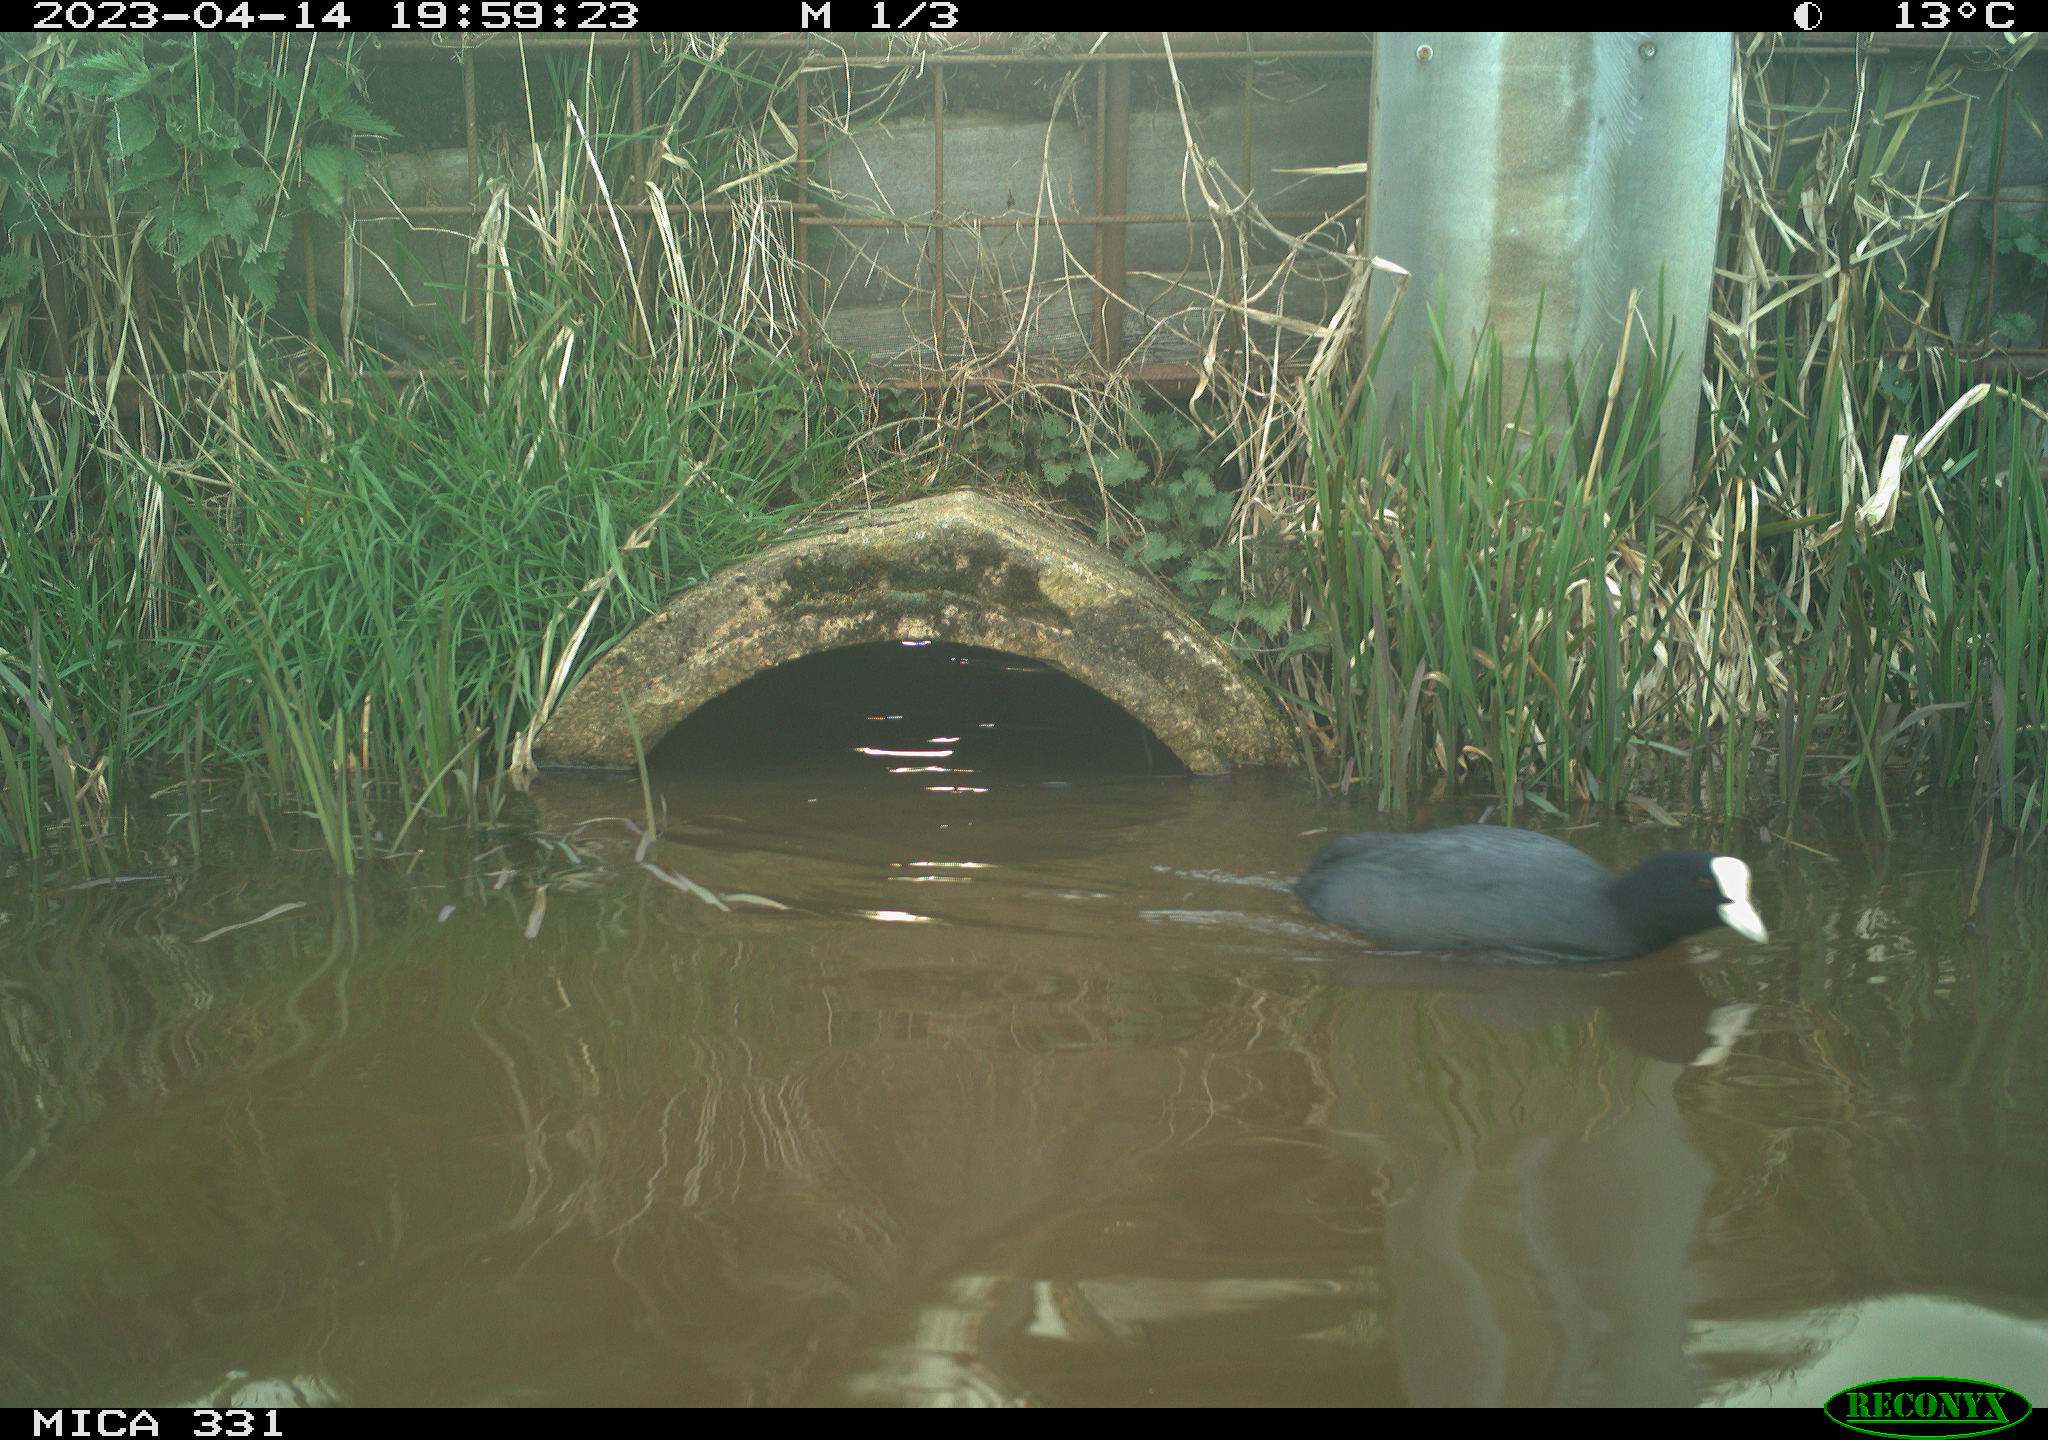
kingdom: Animalia
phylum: Chordata
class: Aves
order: Gruiformes
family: Rallidae
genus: Fulica
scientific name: Fulica atra
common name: Eurasian coot
